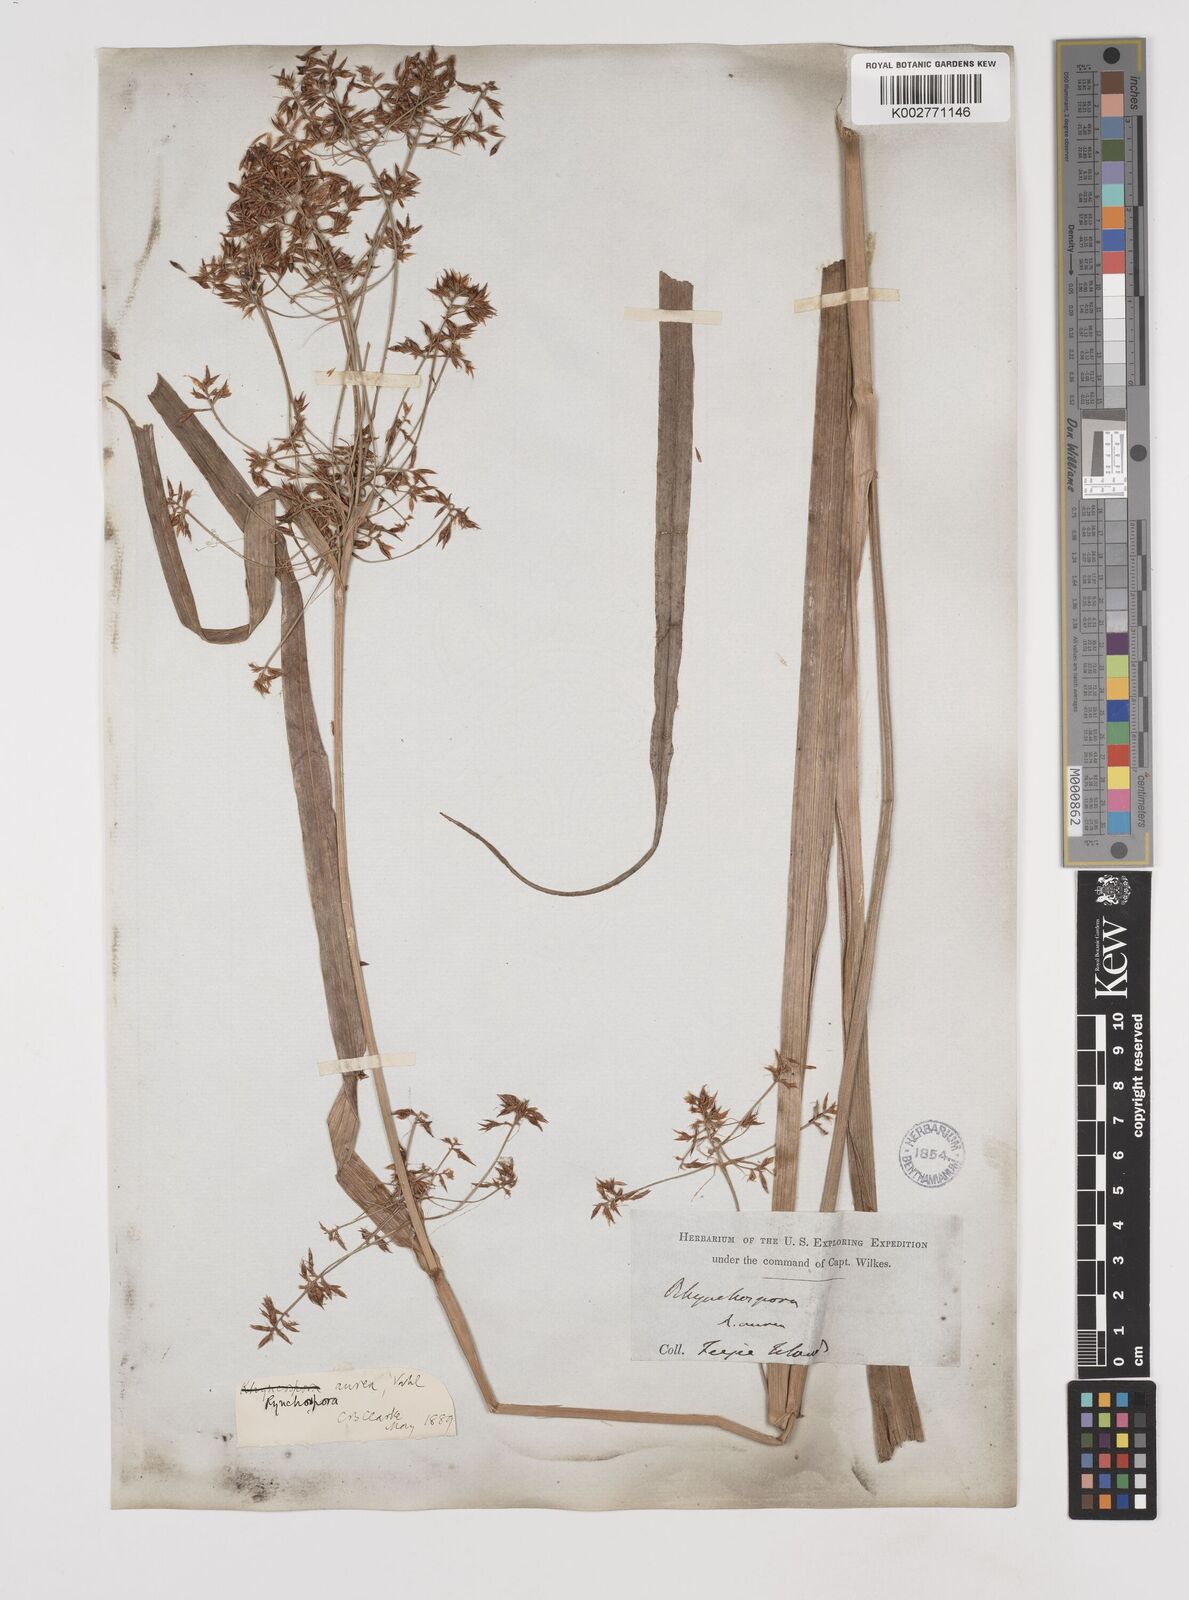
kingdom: Plantae
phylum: Tracheophyta
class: Liliopsida
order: Poales
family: Cyperaceae
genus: Rhynchospora
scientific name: Rhynchospora corymbosa
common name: Golden beak sedge
